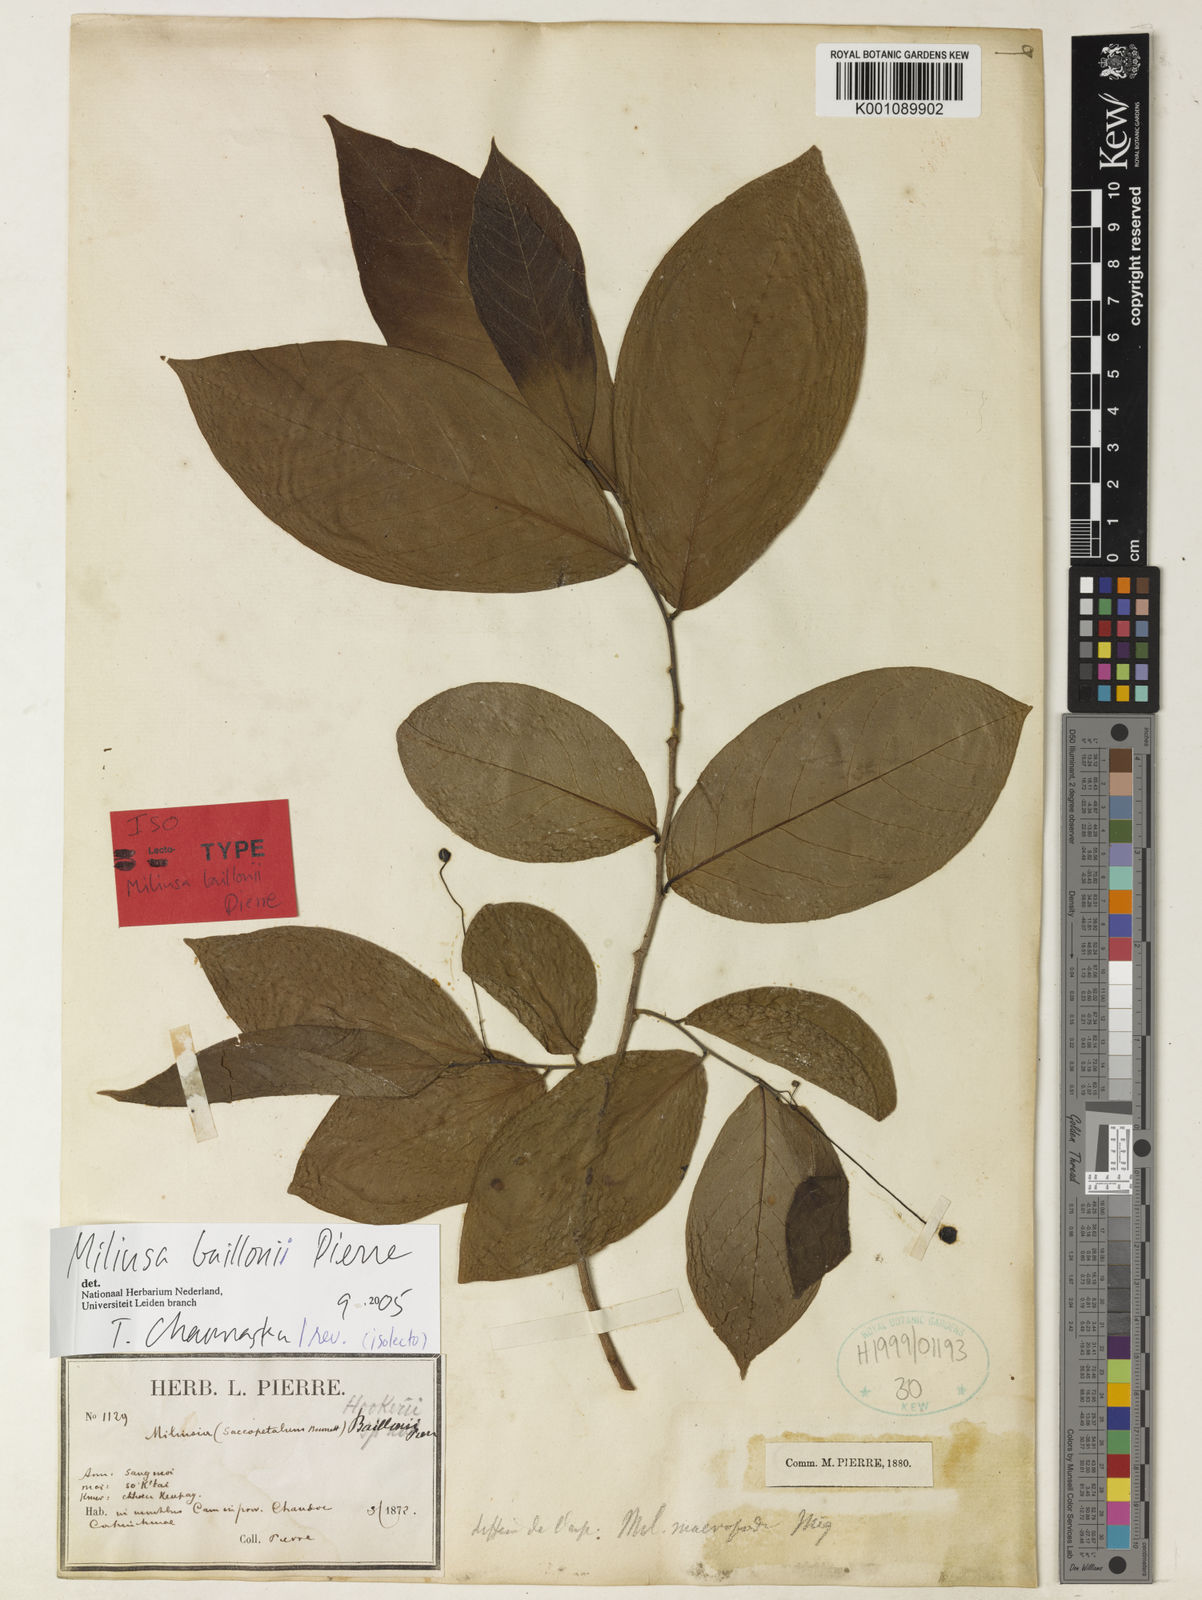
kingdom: Plantae
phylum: Tracheophyta
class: Magnoliopsida
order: Magnoliales
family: Annonaceae
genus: Miliusa
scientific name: Miliusa baillonii
